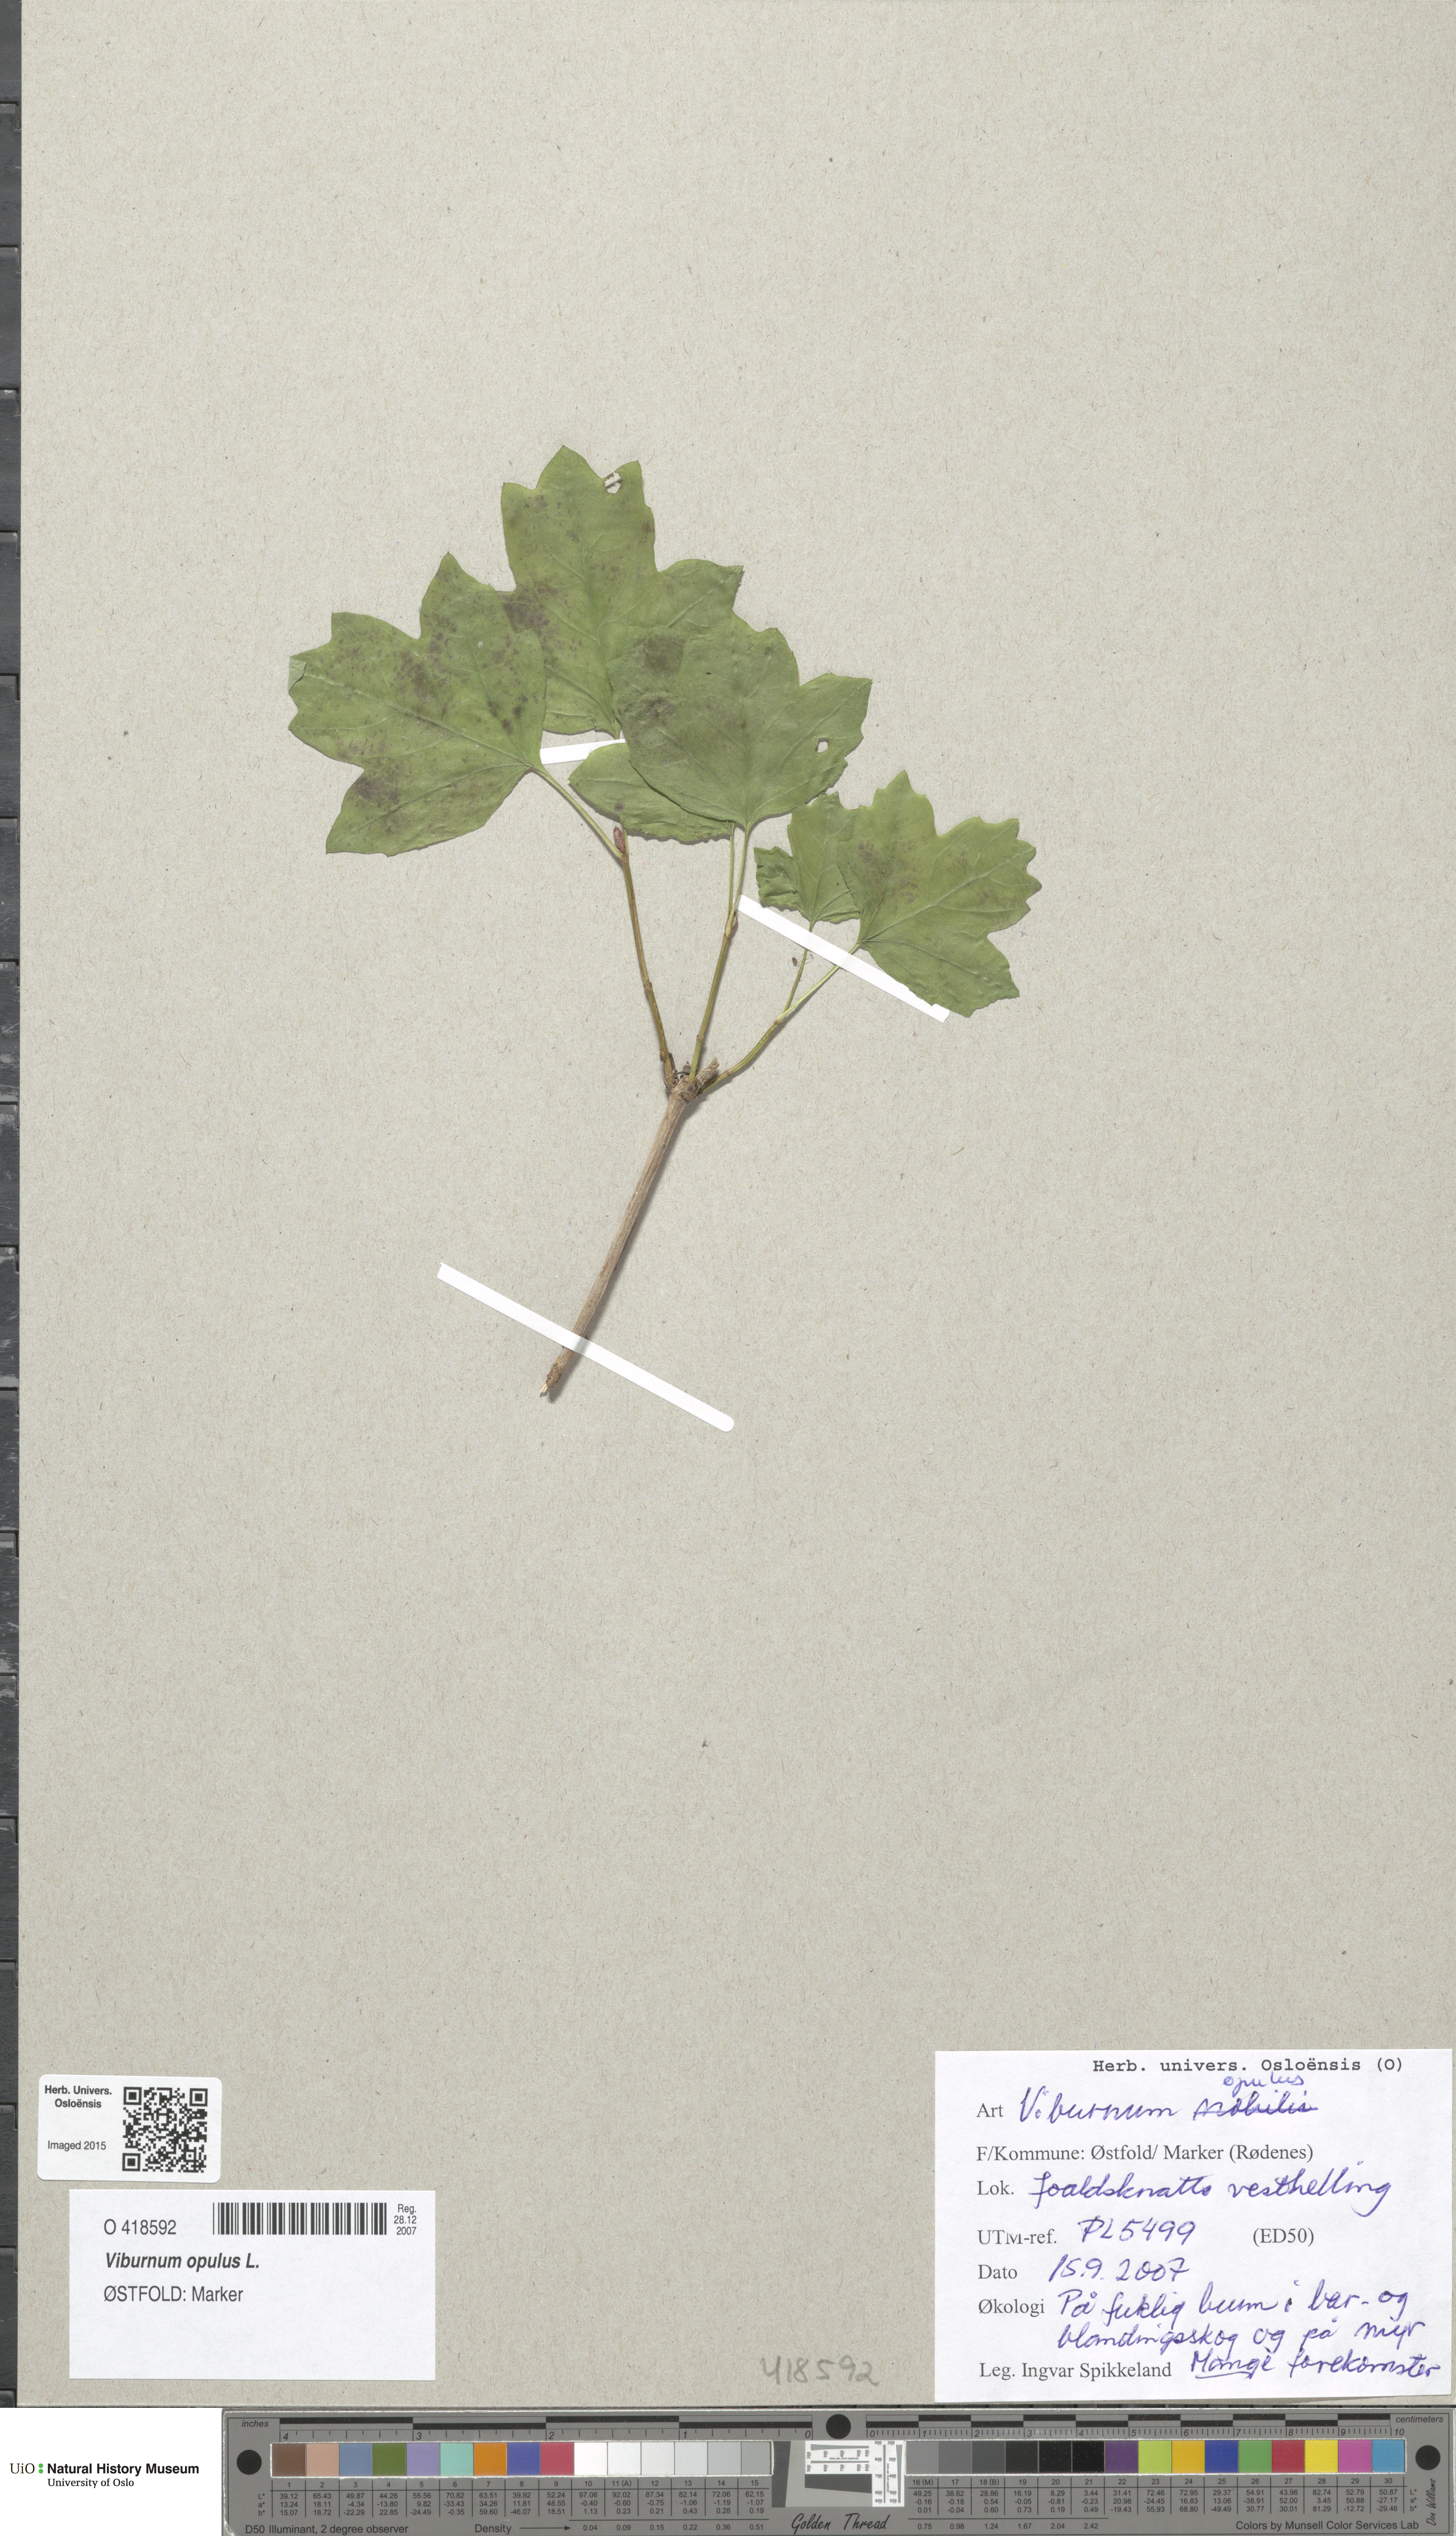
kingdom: Plantae
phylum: Tracheophyta
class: Magnoliopsida
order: Dipsacales
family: Viburnaceae
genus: Viburnum
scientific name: Viburnum opulus
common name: Guelder-rose
